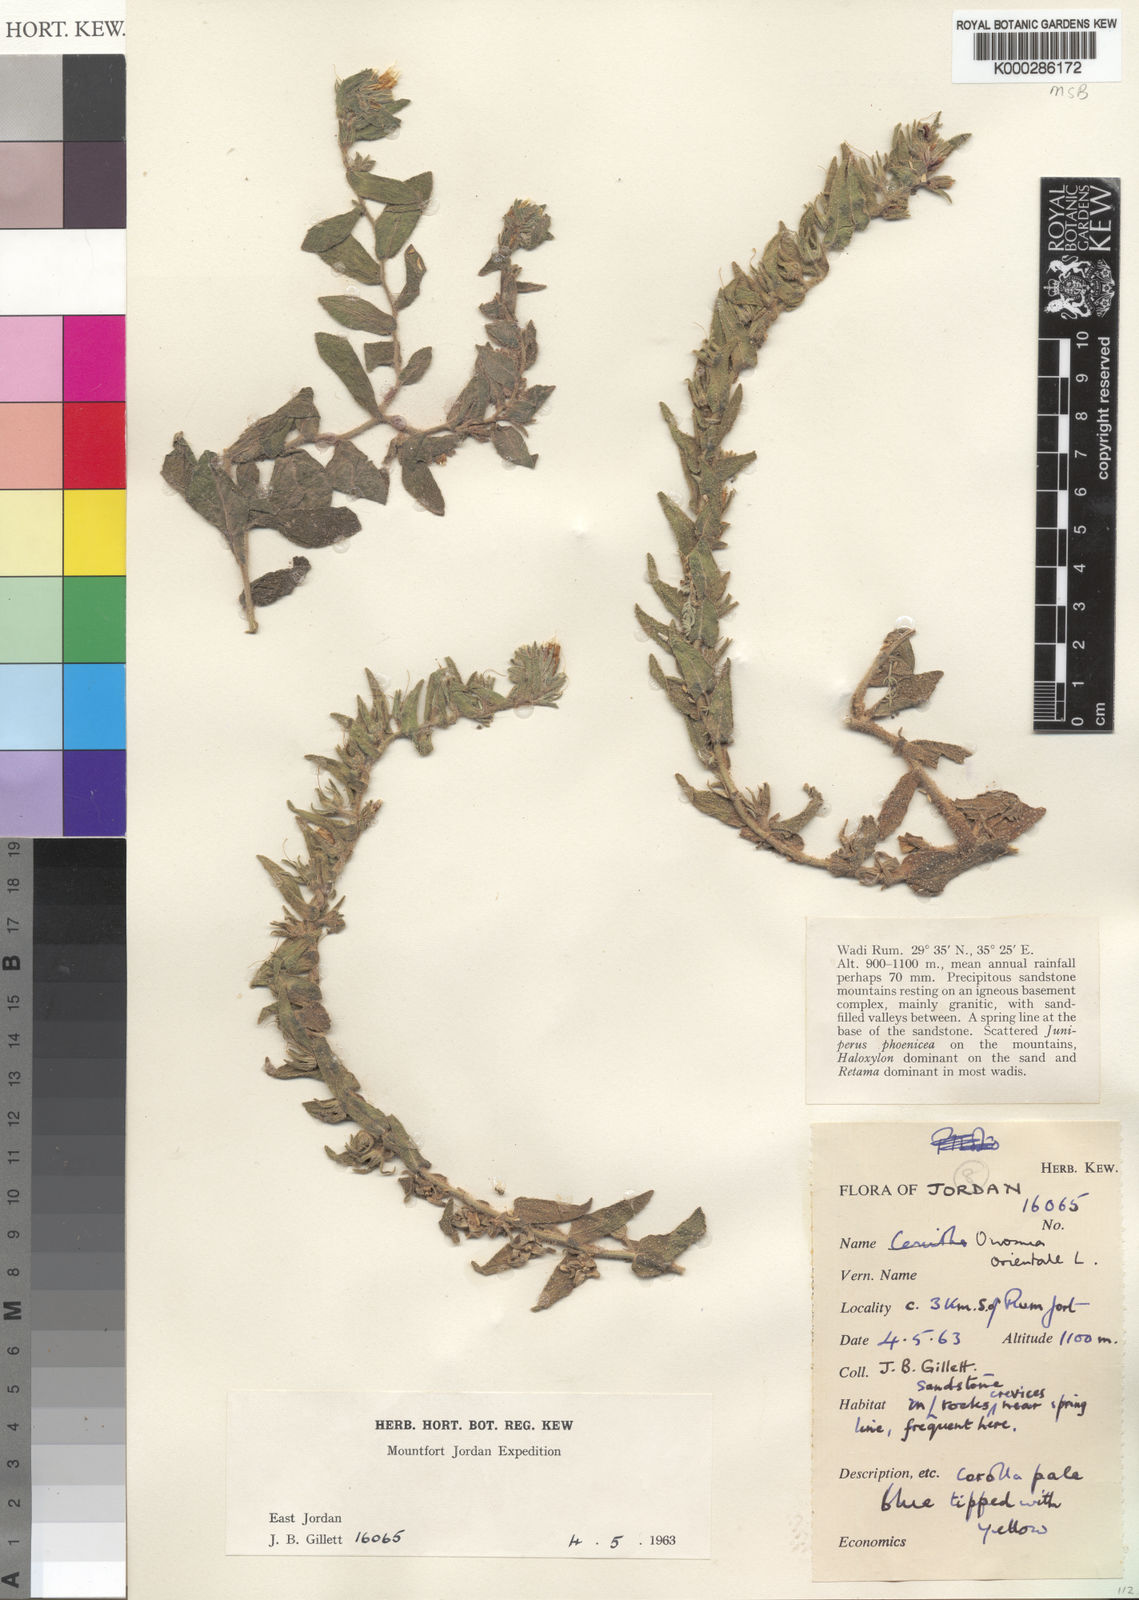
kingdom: Plantae
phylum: Tracheophyta
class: Magnoliopsida
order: Boraginales
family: Boraginaceae
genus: Podonosma
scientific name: Podonosma orientalis
